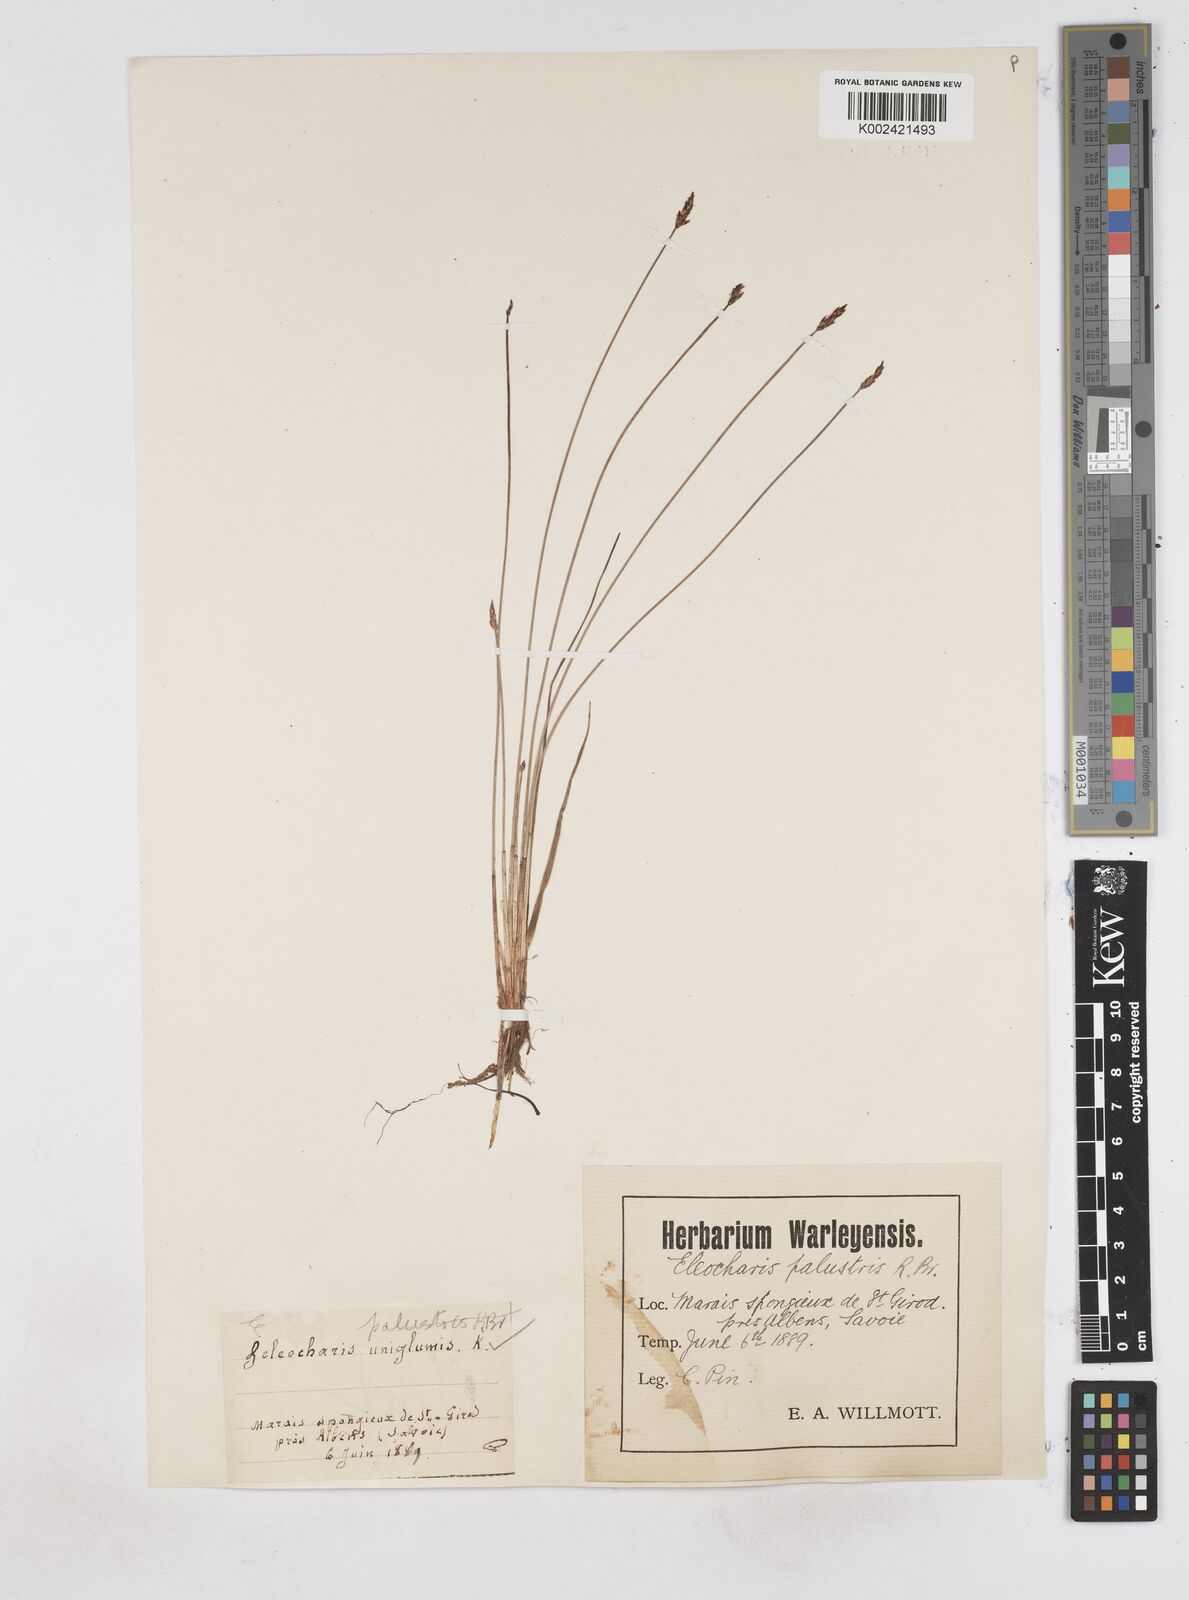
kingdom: Plantae
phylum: Tracheophyta
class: Liliopsida
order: Poales
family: Cyperaceae
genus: Eleocharis
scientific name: Eleocharis uniglumis
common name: Slender spike-rush
